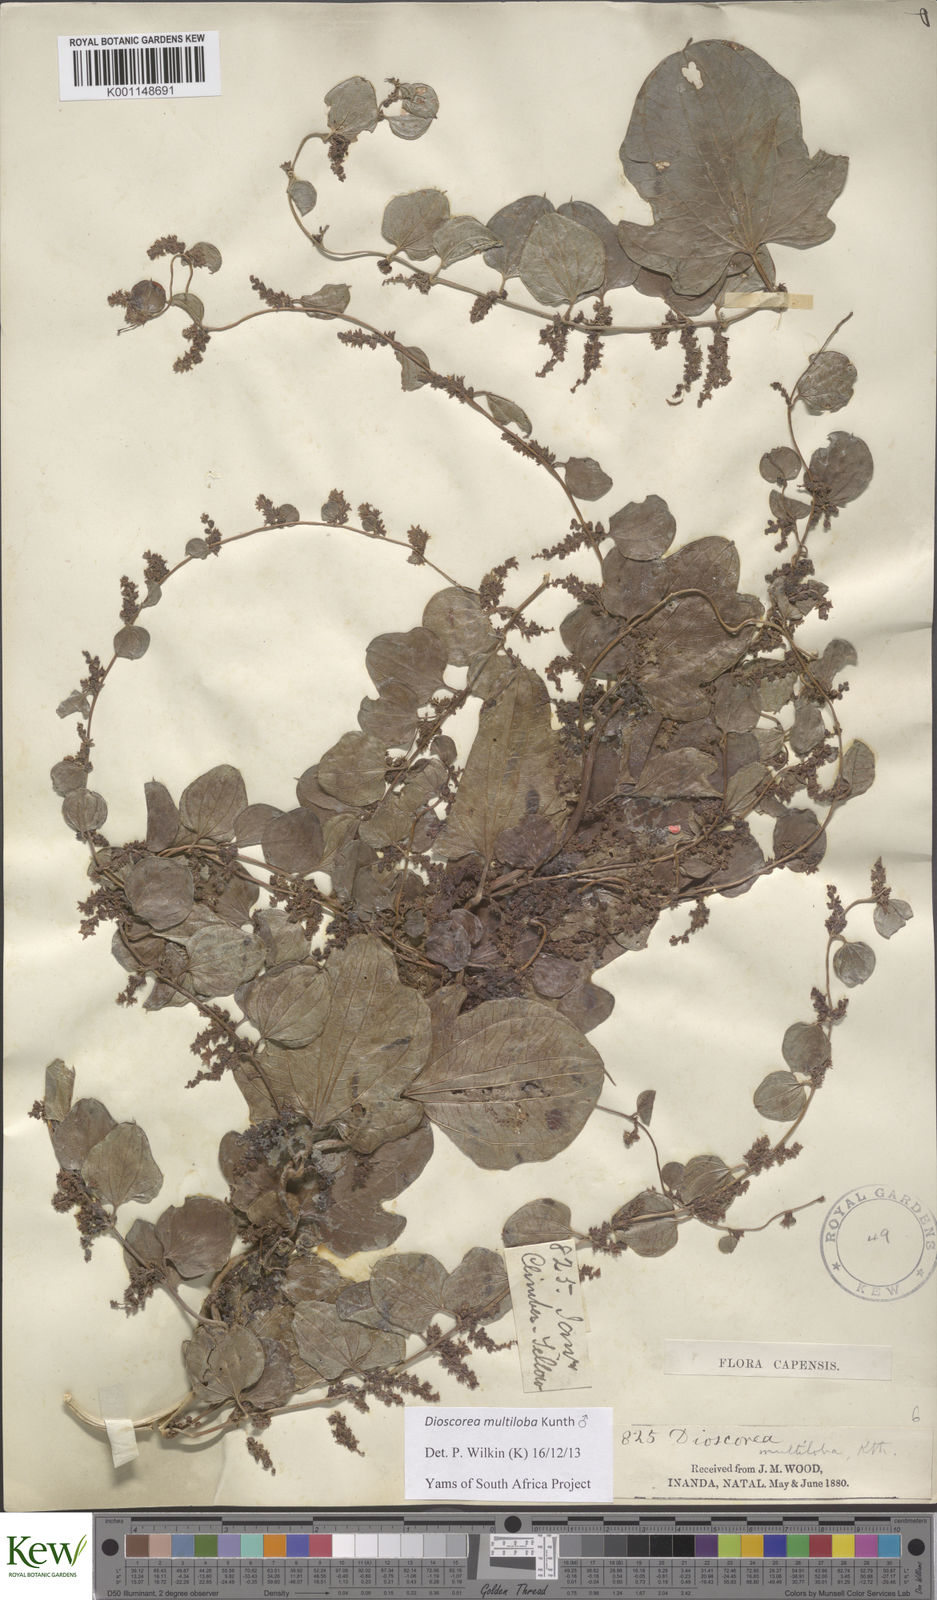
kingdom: Plantae
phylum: Tracheophyta
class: Liliopsida
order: Dioscoreales
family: Dioscoreaceae
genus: Dioscorea
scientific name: Dioscorea multiloba
